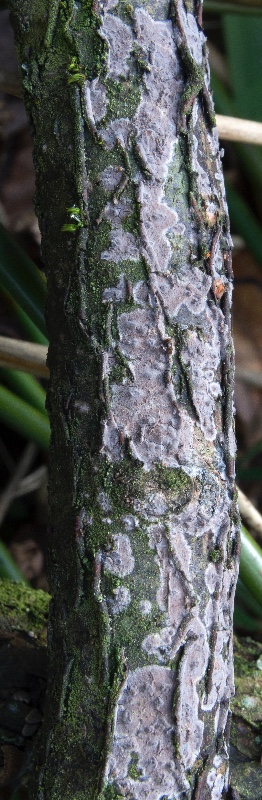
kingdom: Fungi
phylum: Basidiomycota
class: Agaricomycetes
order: Russulales
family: Peniophoraceae
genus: Peniophora
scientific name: Peniophora violaceolivida
